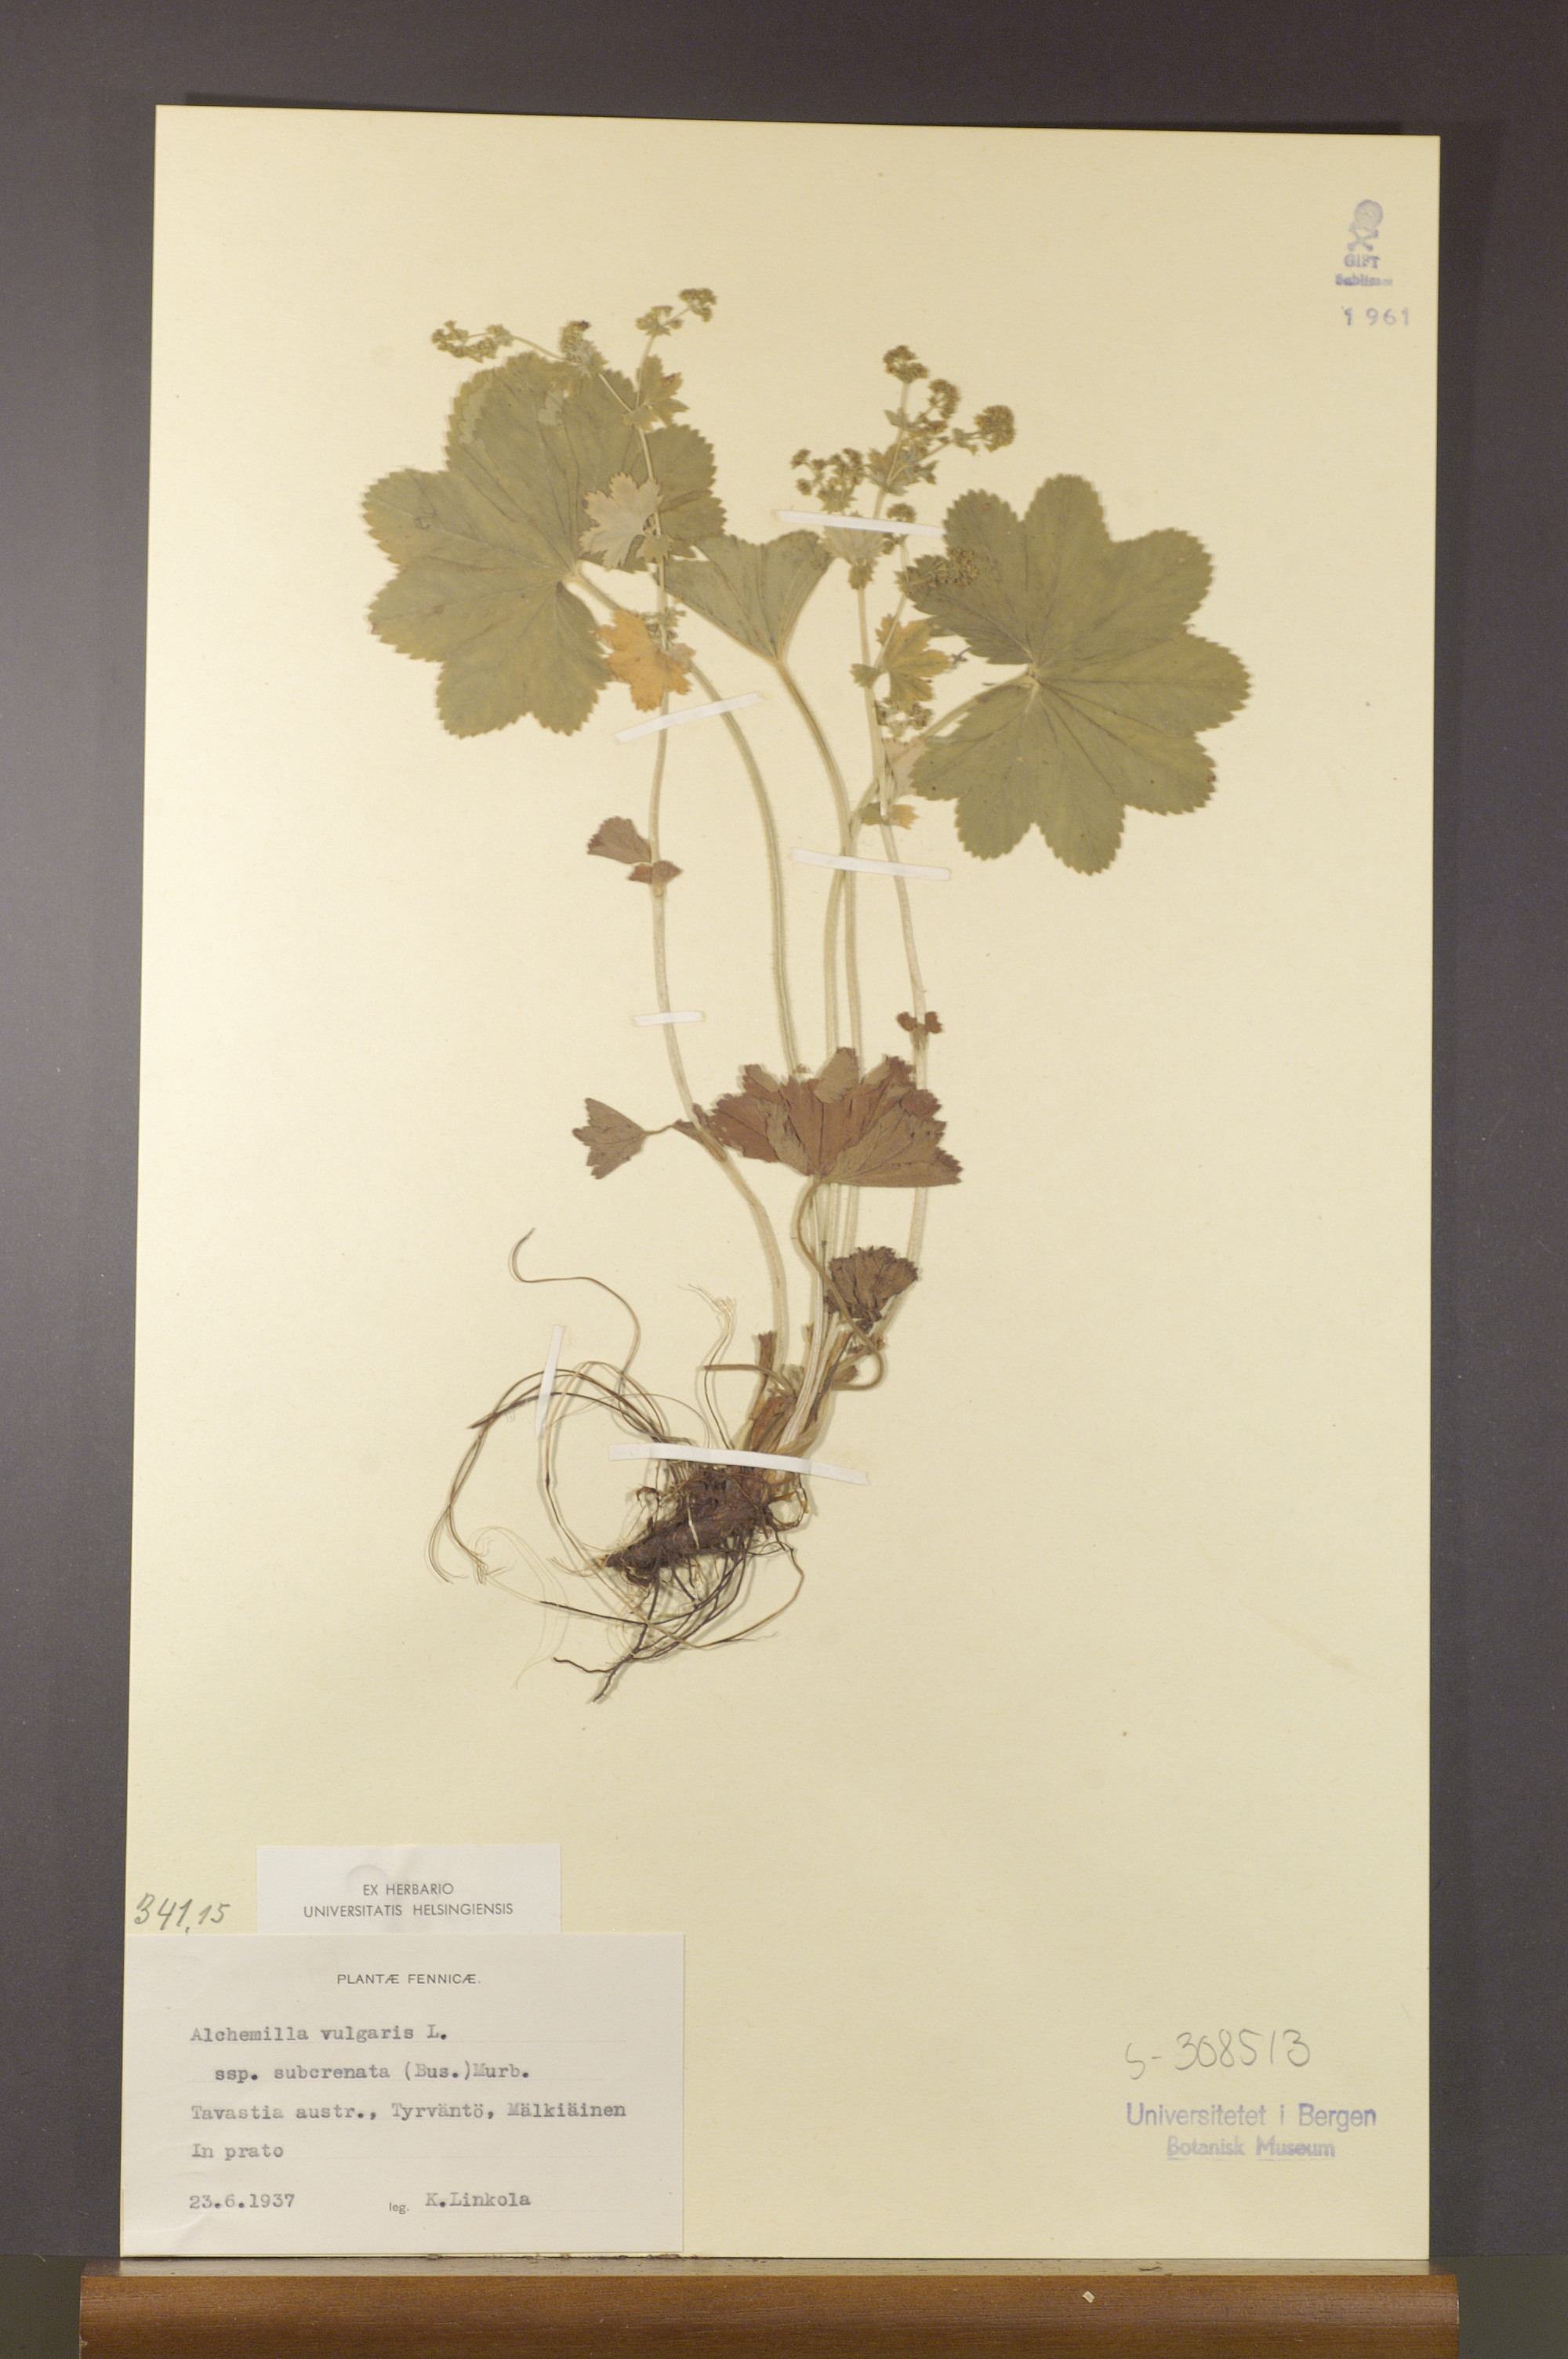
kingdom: Plantae
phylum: Tracheophyta
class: Magnoliopsida
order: Rosales
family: Rosaceae
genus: Alchemilla
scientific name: Alchemilla subcrenata
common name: Broadtooth lady's mantle
